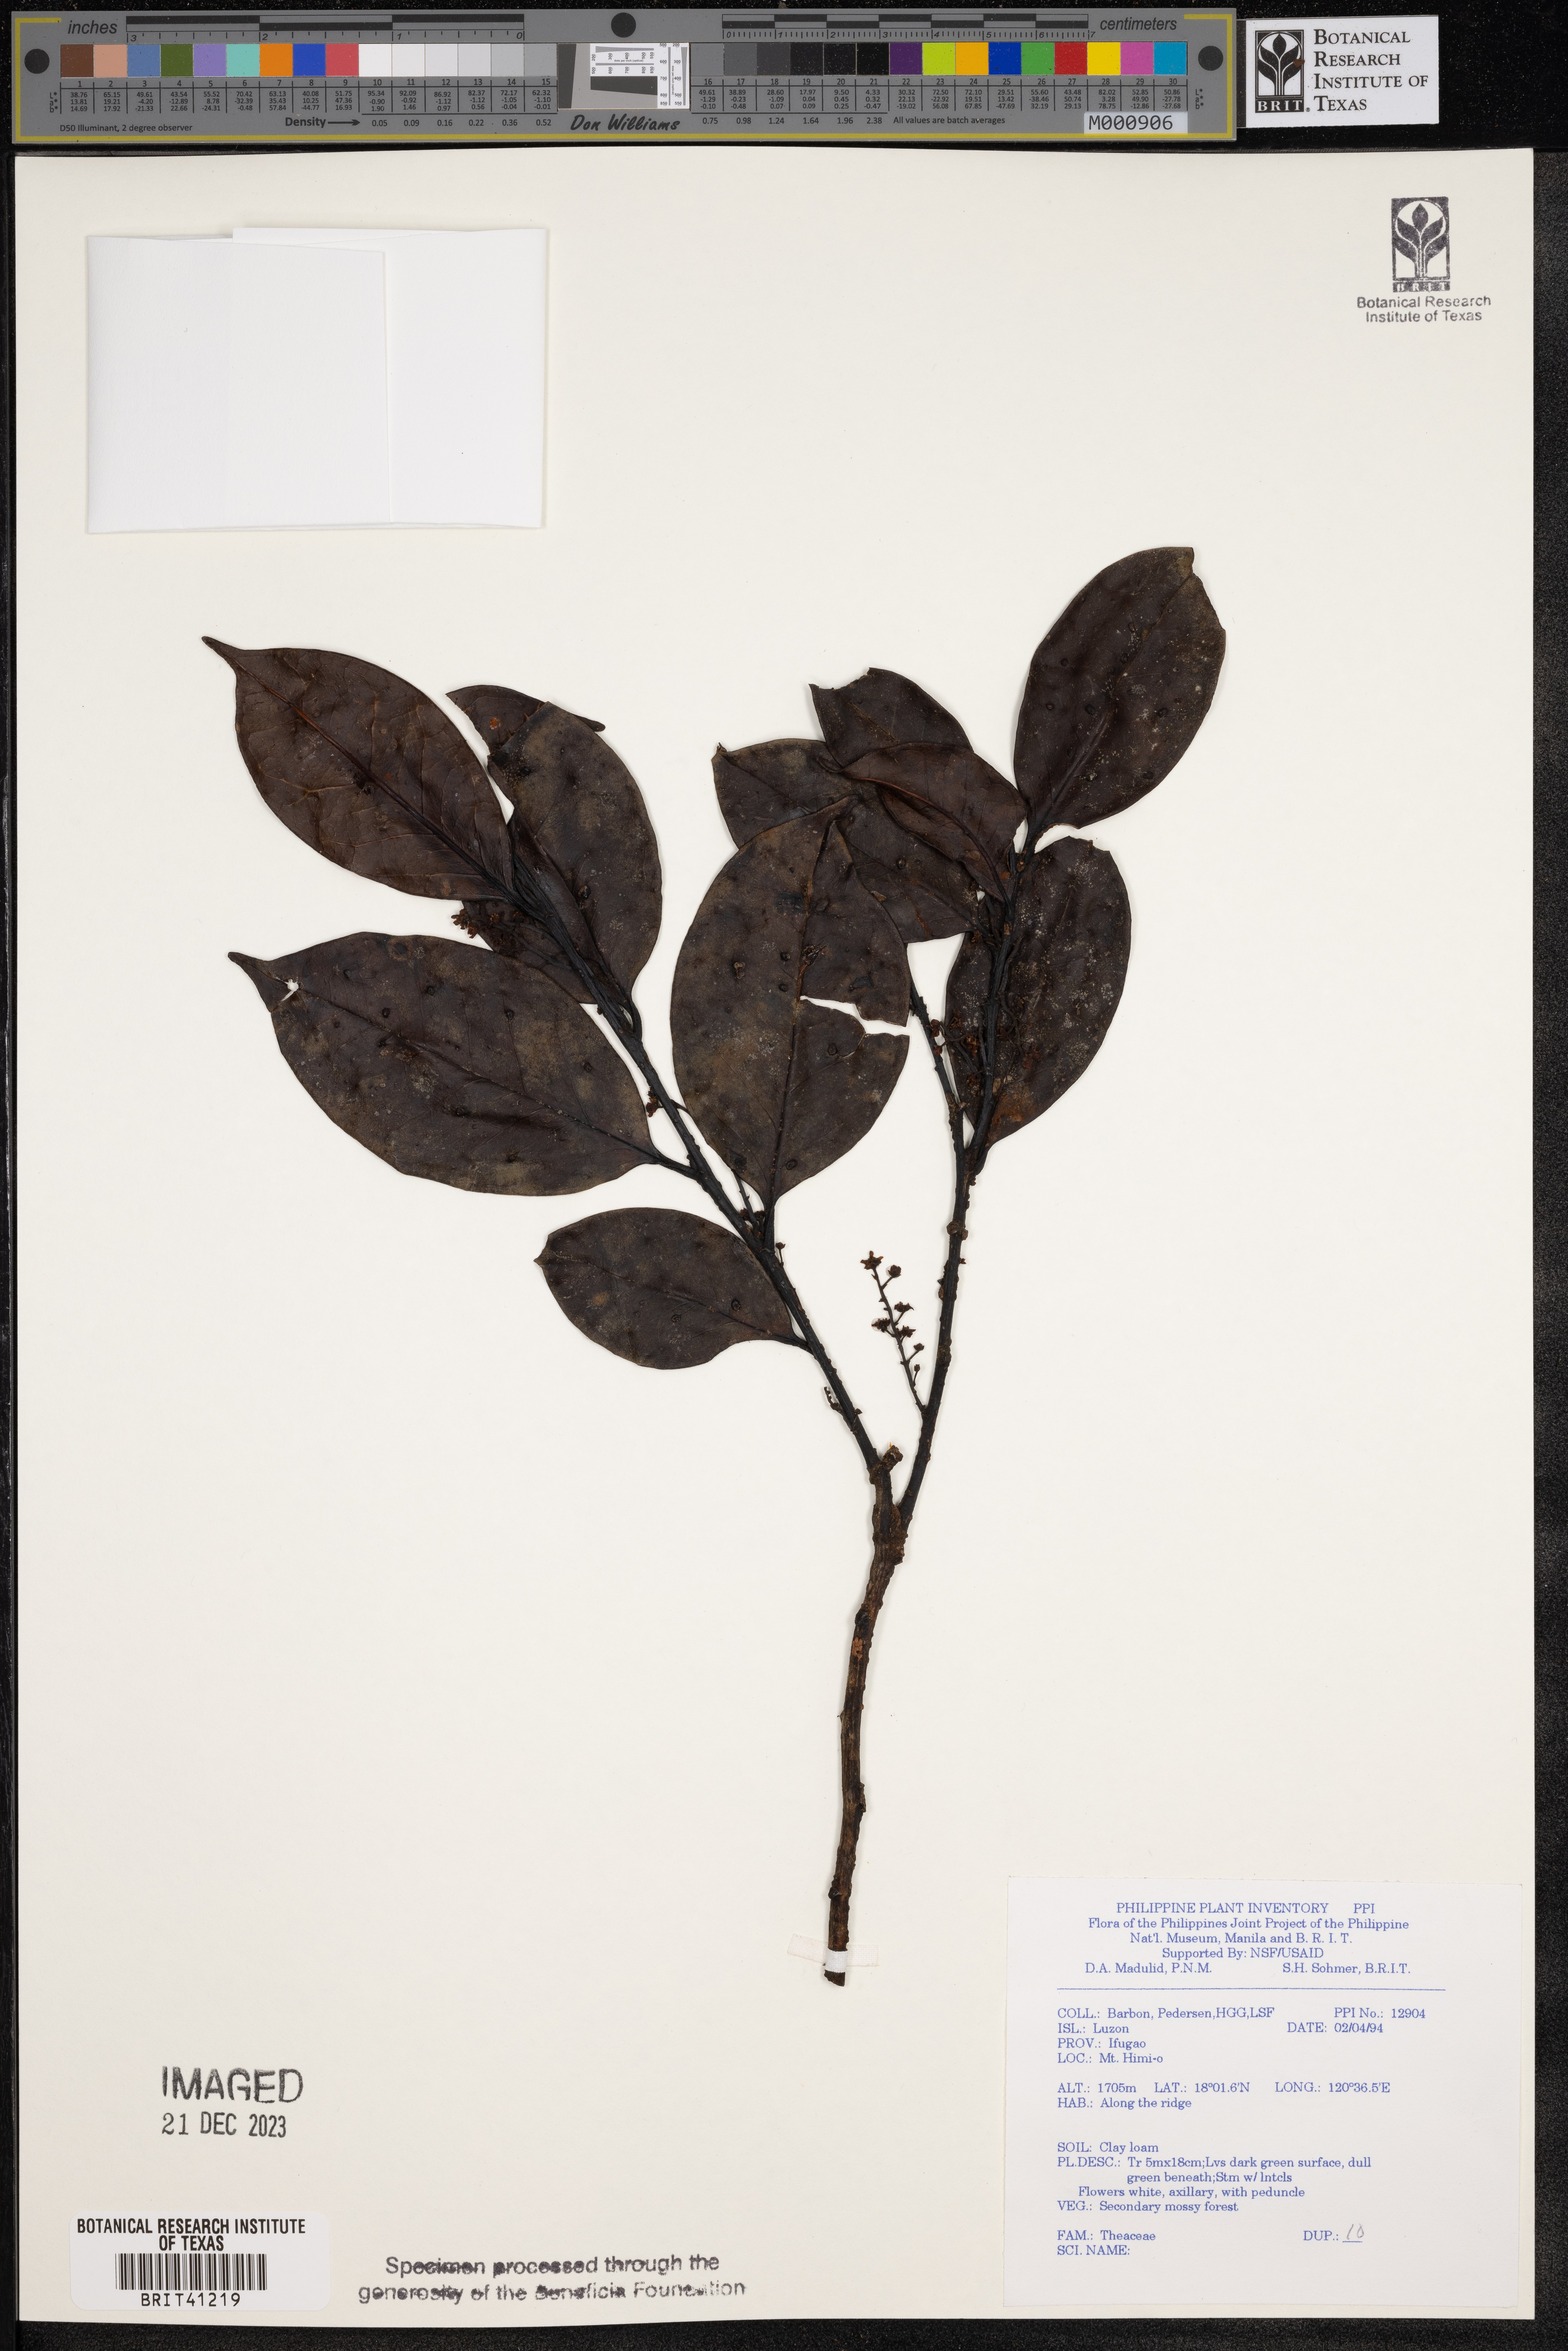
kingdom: Plantae
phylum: Tracheophyta
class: Magnoliopsida
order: Ericales
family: Theaceae
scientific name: Theaceae
